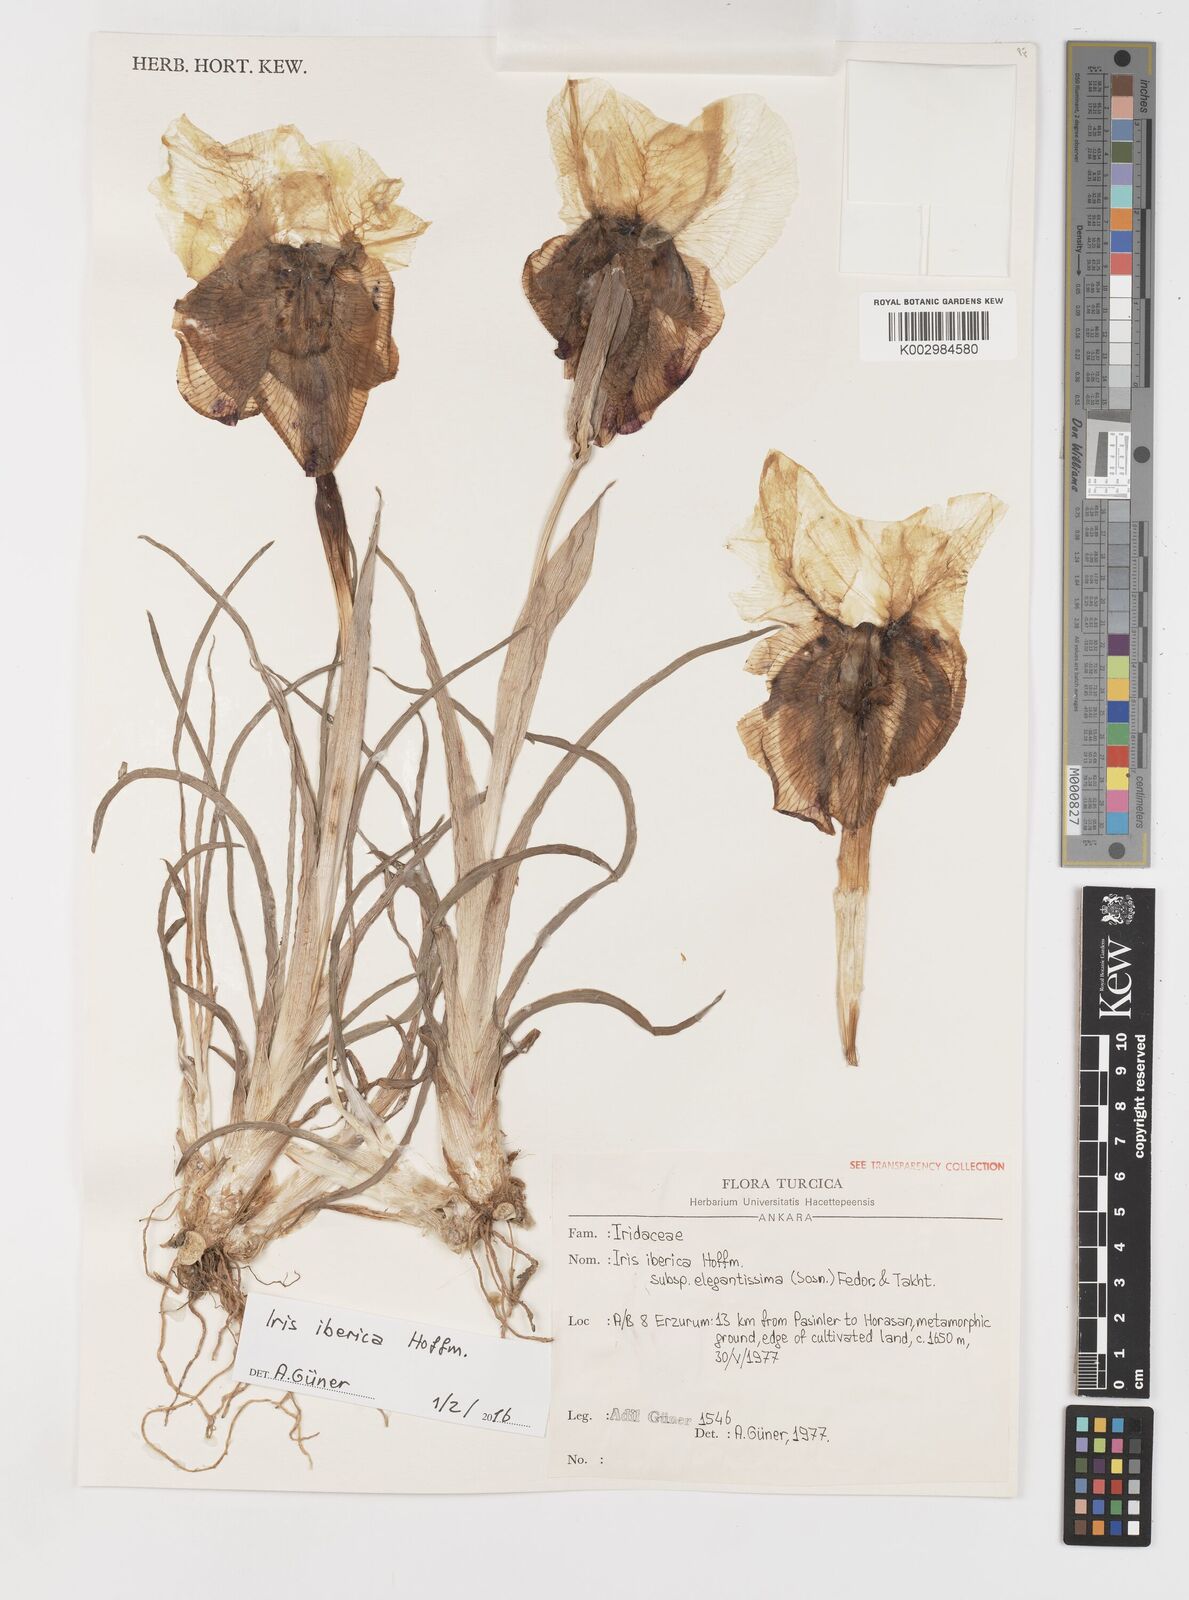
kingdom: Plantae
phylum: Tracheophyta
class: Liliopsida
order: Asparagales
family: Iridaceae
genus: Iris
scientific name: Iris iberica
